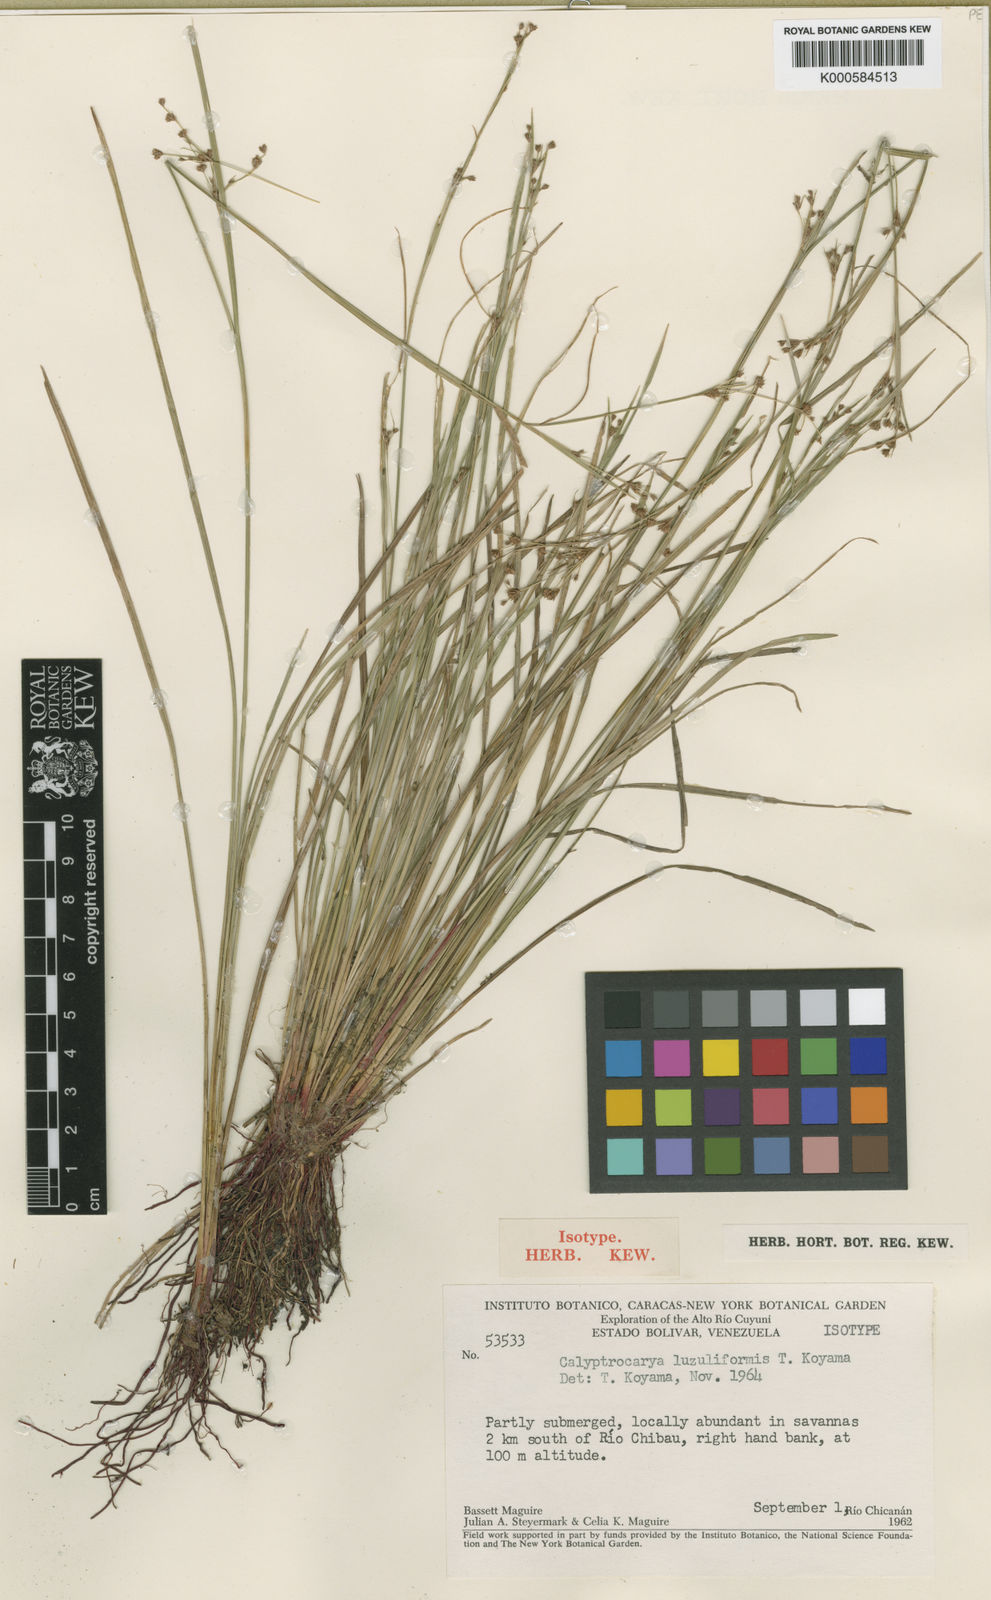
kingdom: Plantae
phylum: Tracheophyta
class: Liliopsida
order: Poales
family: Cyperaceae
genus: Calyptrocarya
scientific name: Calyptrocarya luzuliformis
